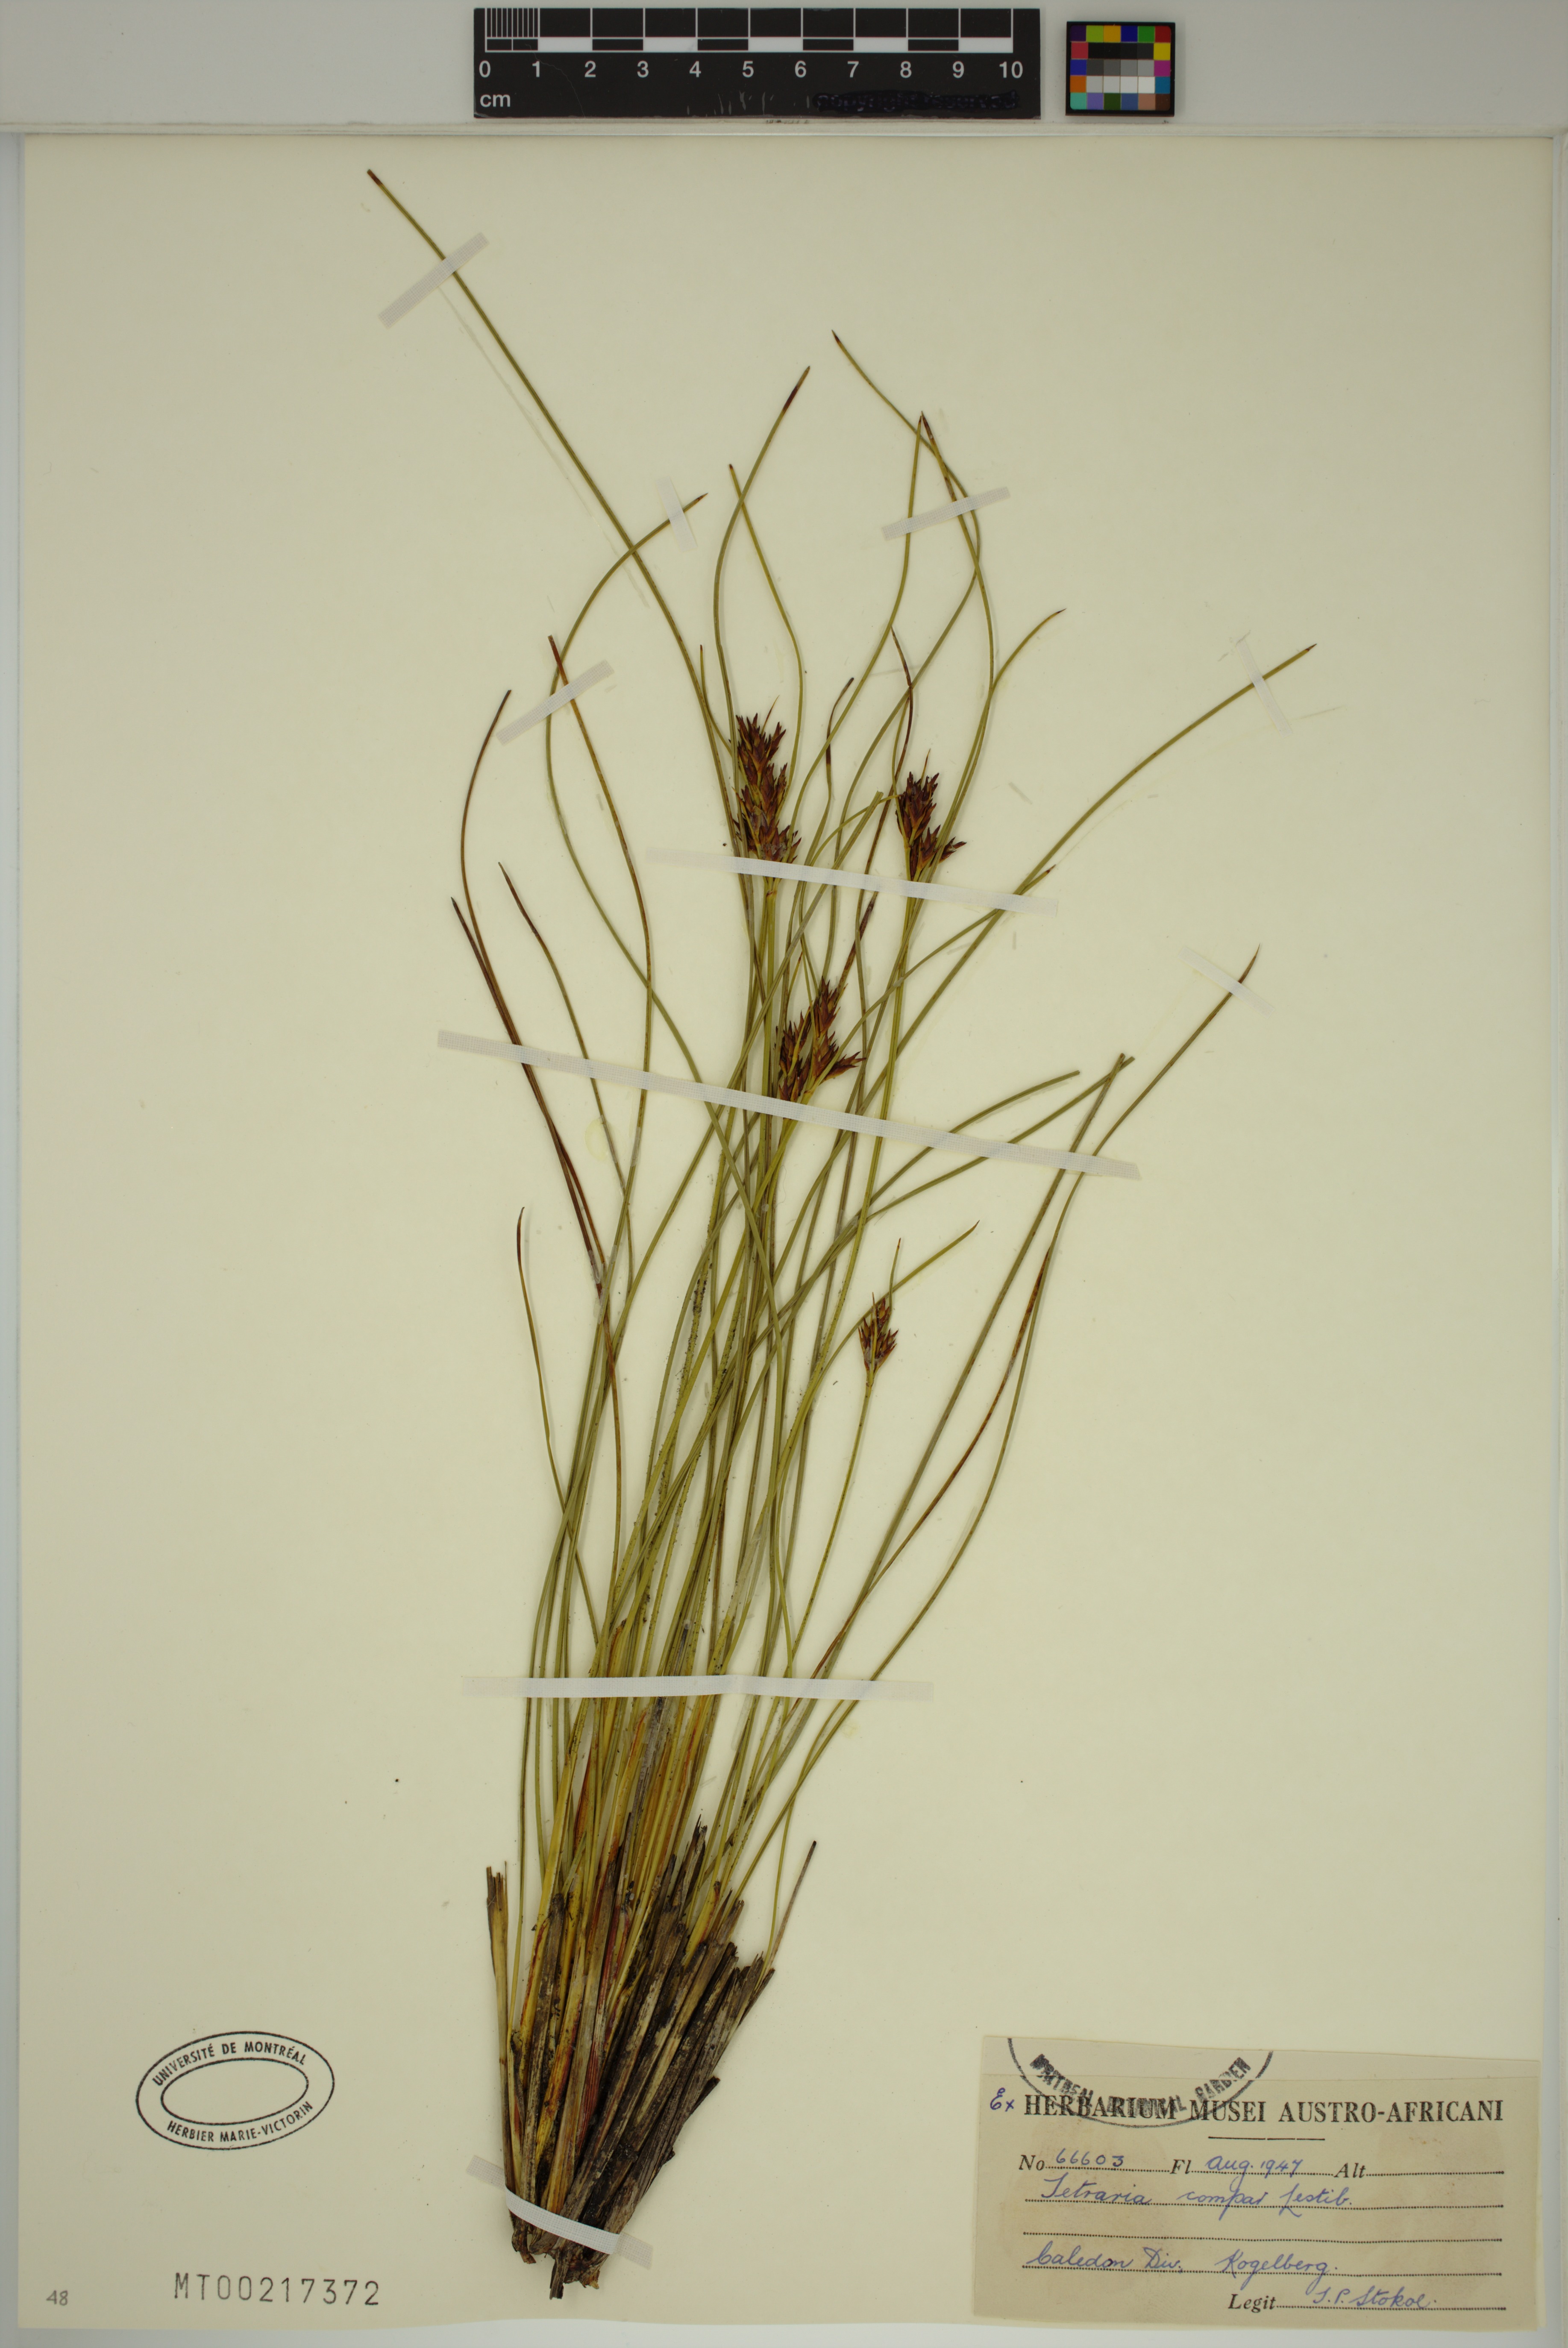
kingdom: Plantae
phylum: Tracheophyta
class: Liliopsida
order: Poales
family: Cyperaceae
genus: Schoenus
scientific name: Schoenus compar
